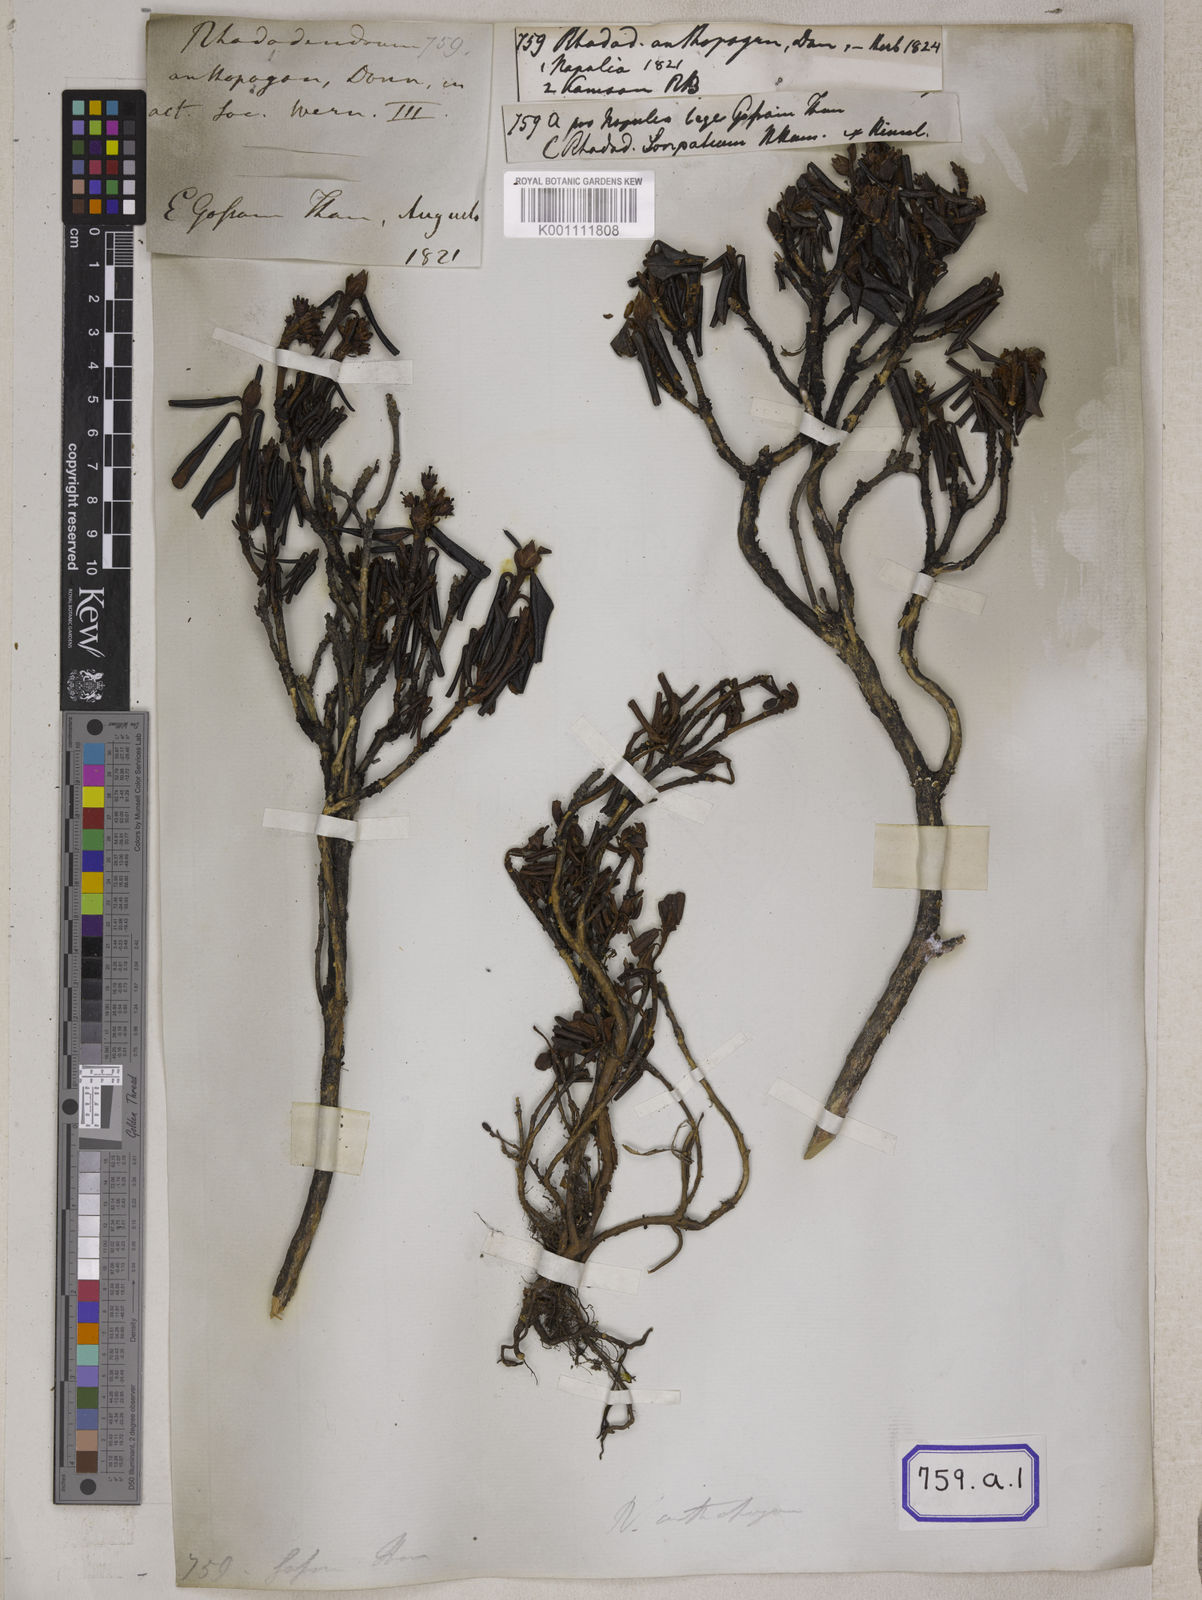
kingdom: Plantae
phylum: Tracheophyta
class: Magnoliopsida
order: Ericales
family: Ericaceae
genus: Rhododendron
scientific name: Rhododendron anthopogon
